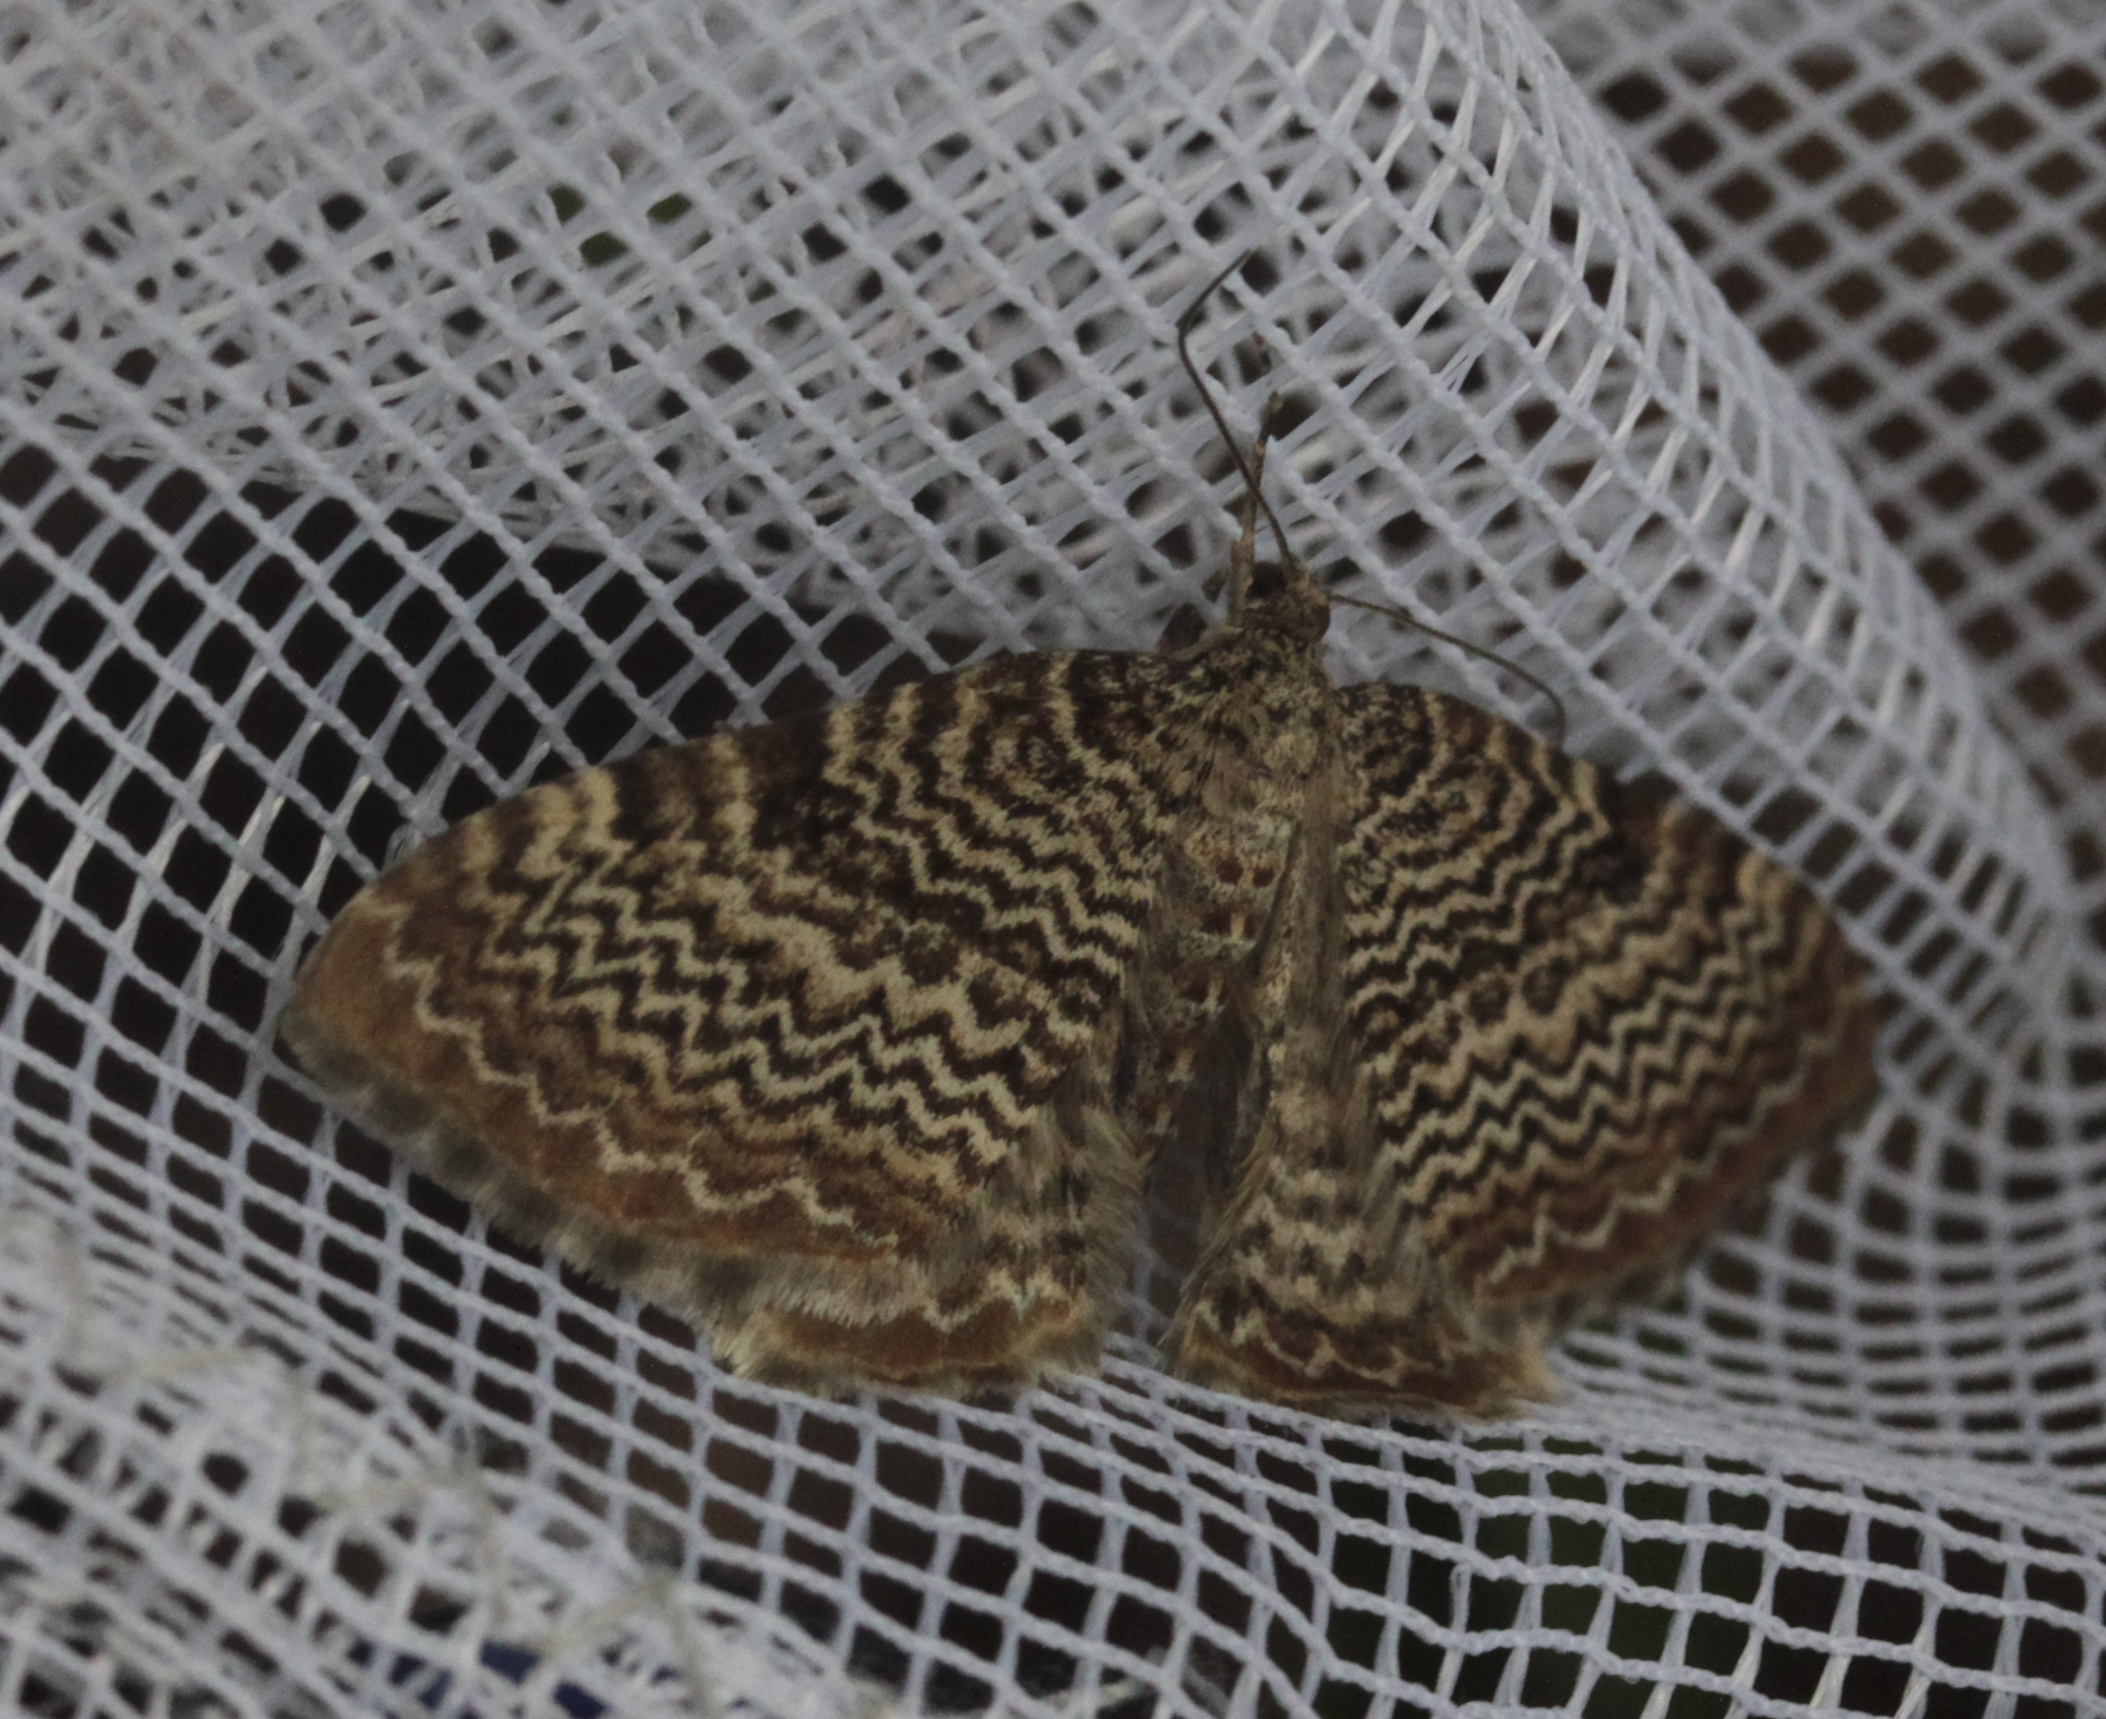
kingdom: Animalia
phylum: Arthropoda
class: Insecta
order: Lepidoptera
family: Geometridae
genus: Rheumaptera
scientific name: Rheumaptera undulata
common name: Scallop shell
